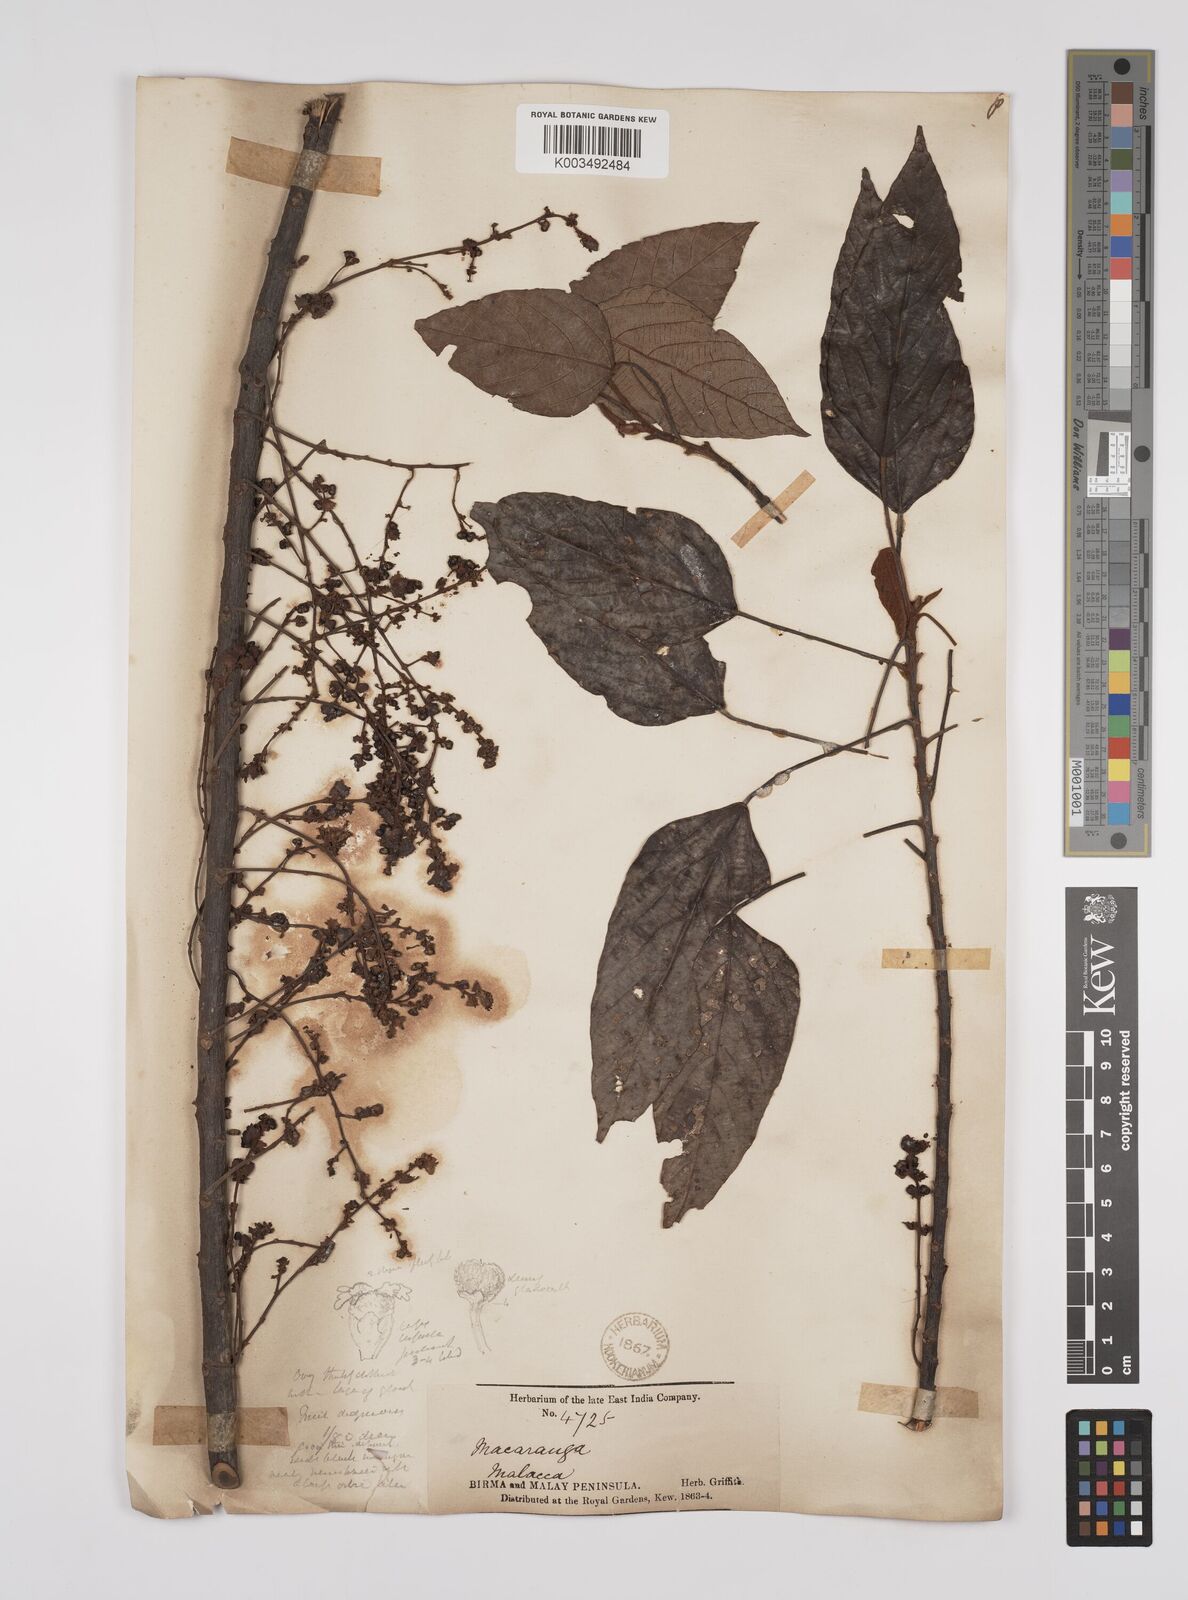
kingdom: Plantae
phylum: Tracheophyta
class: Magnoliopsida
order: Malpighiales
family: Euphorbiaceae
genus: Macaranga
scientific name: Macaranga heynei
